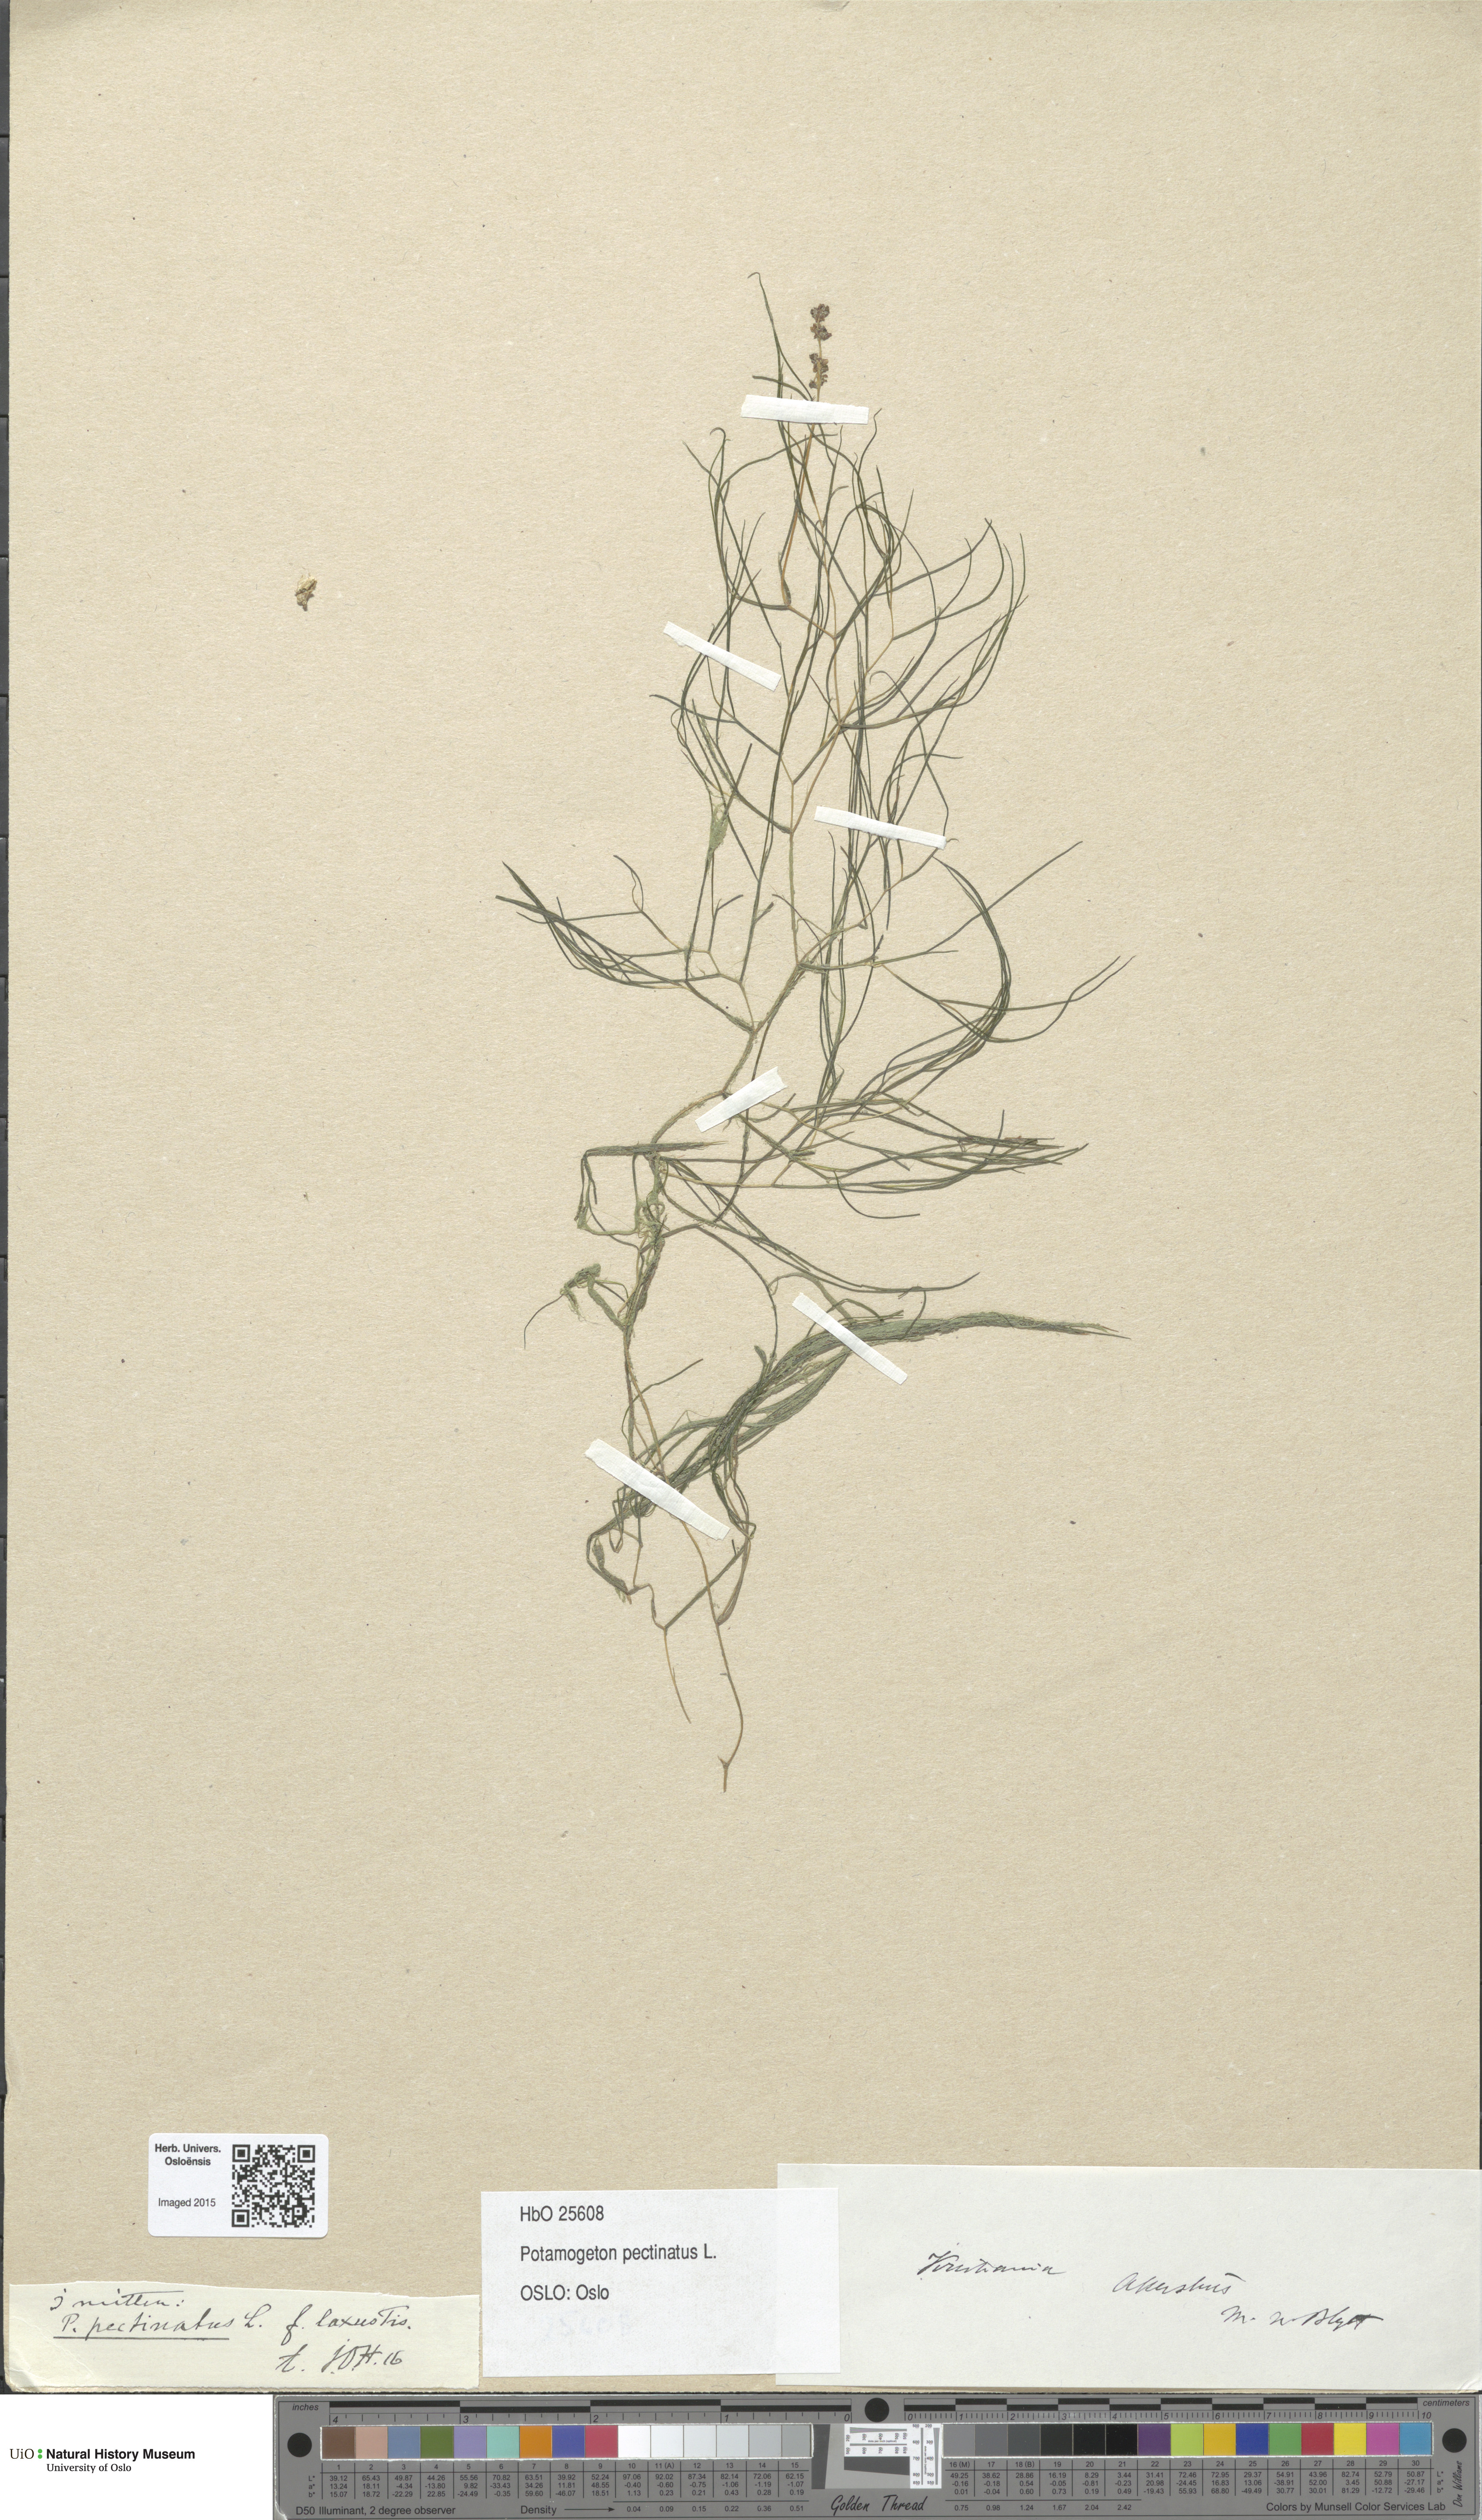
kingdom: Plantae
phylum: Tracheophyta
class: Liliopsida
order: Alismatales
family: Potamogetonaceae
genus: Stuckenia
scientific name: Stuckenia pectinata
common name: Sago pondweed
